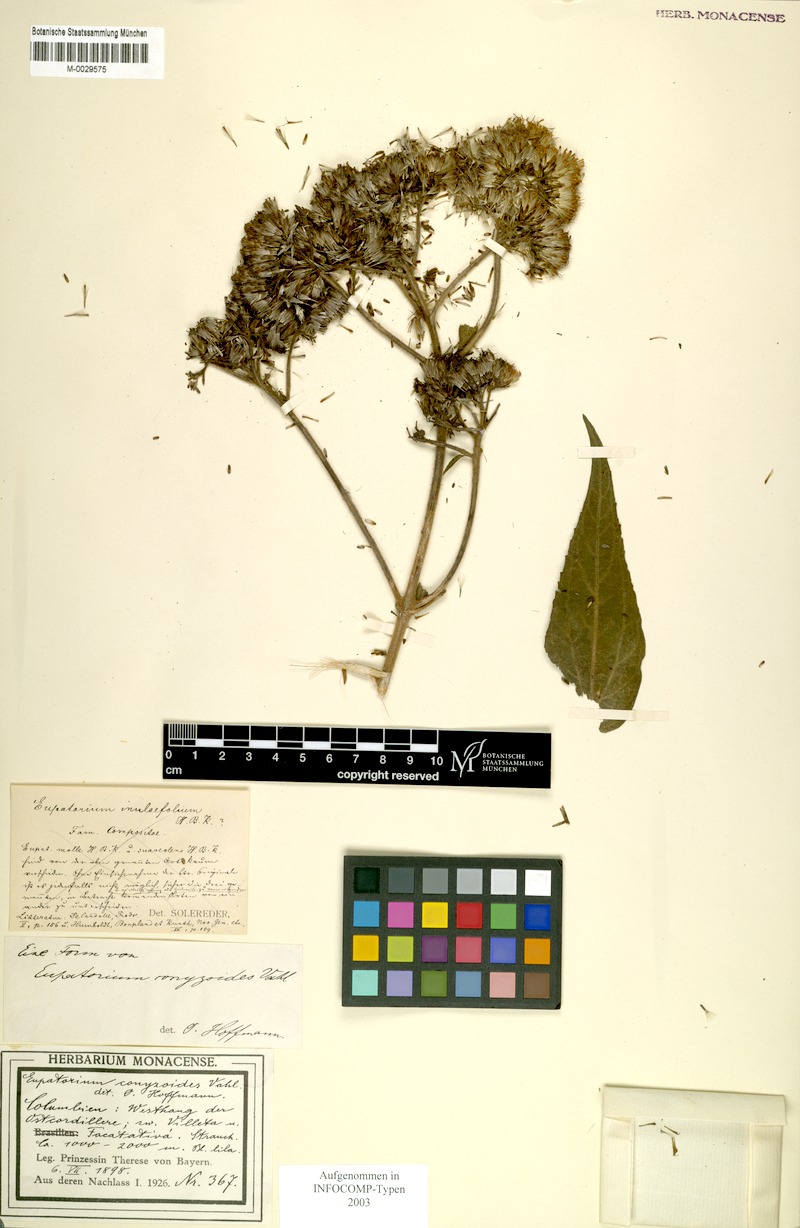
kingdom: Plantae
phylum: Tracheophyta
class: Magnoliopsida
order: Asterales
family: Asteraceae
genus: Chromolaena
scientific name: Chromolaena margaritensis
